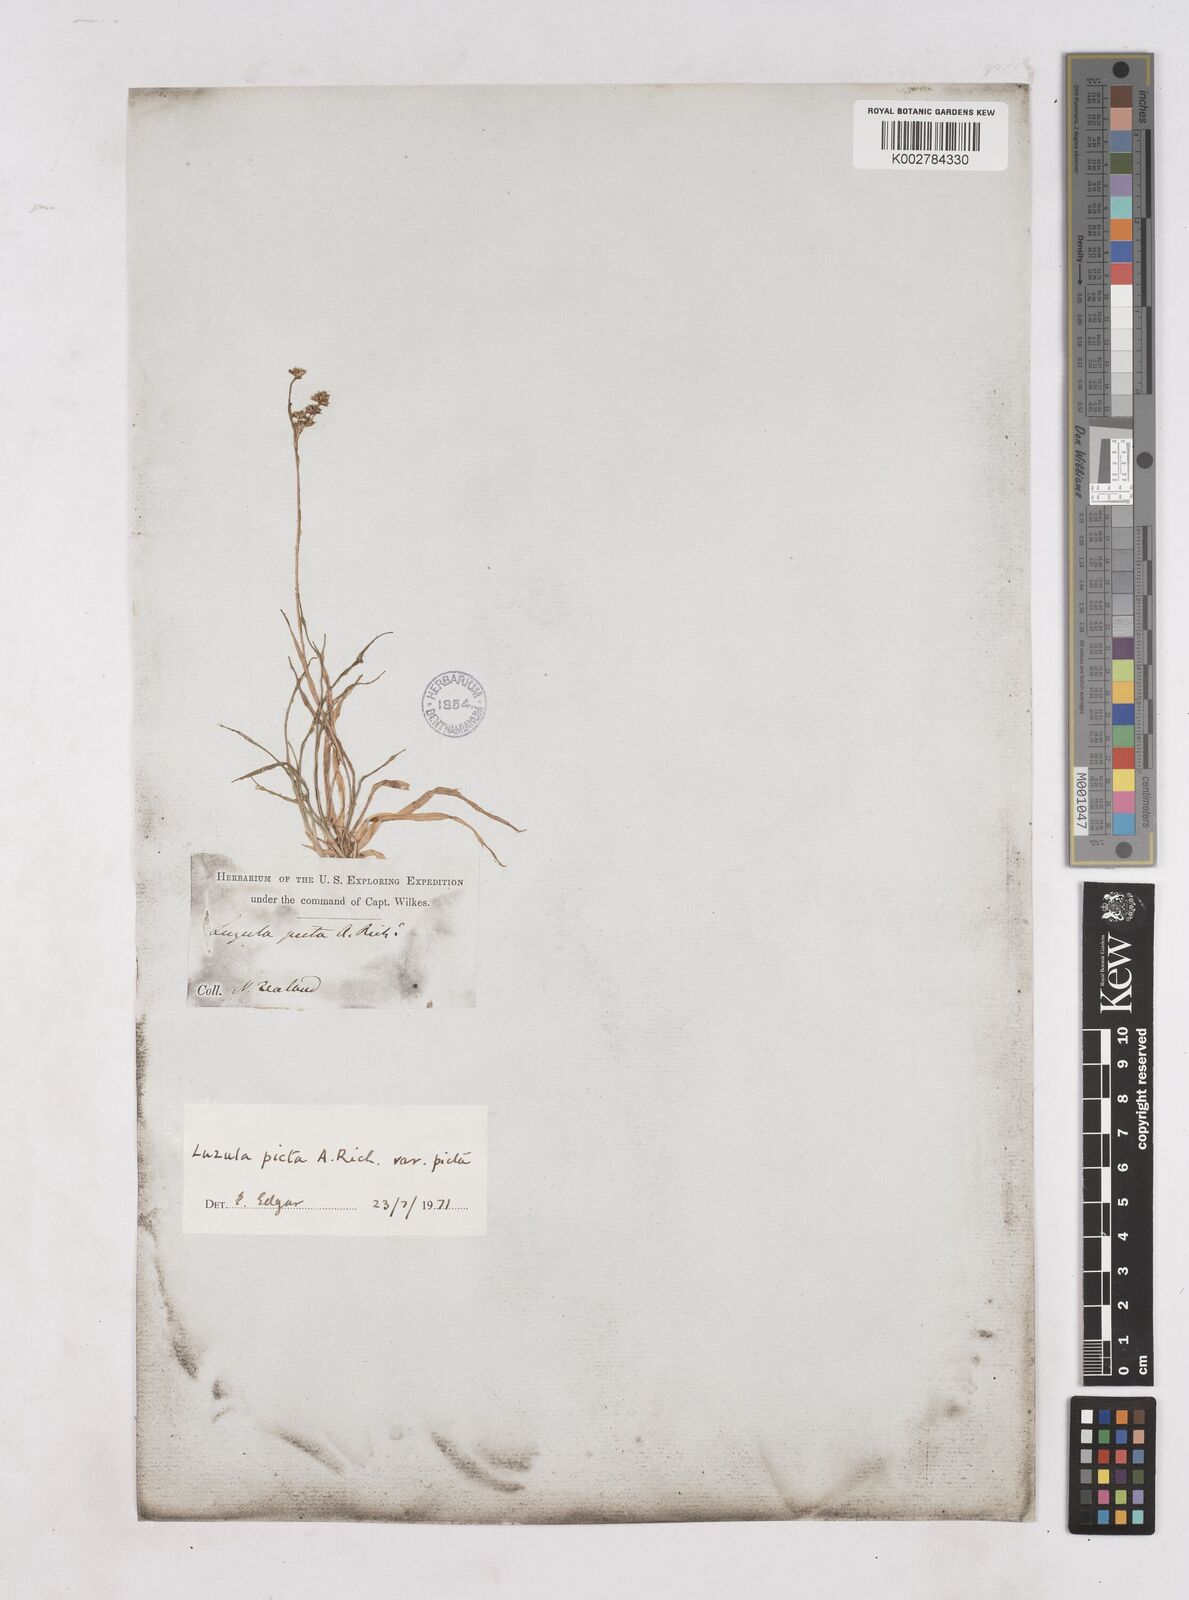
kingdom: Plantae
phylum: Tracheophyta
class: Liliopsida
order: Poales
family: Juncaceae
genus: Luzula
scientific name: Luzula picta
